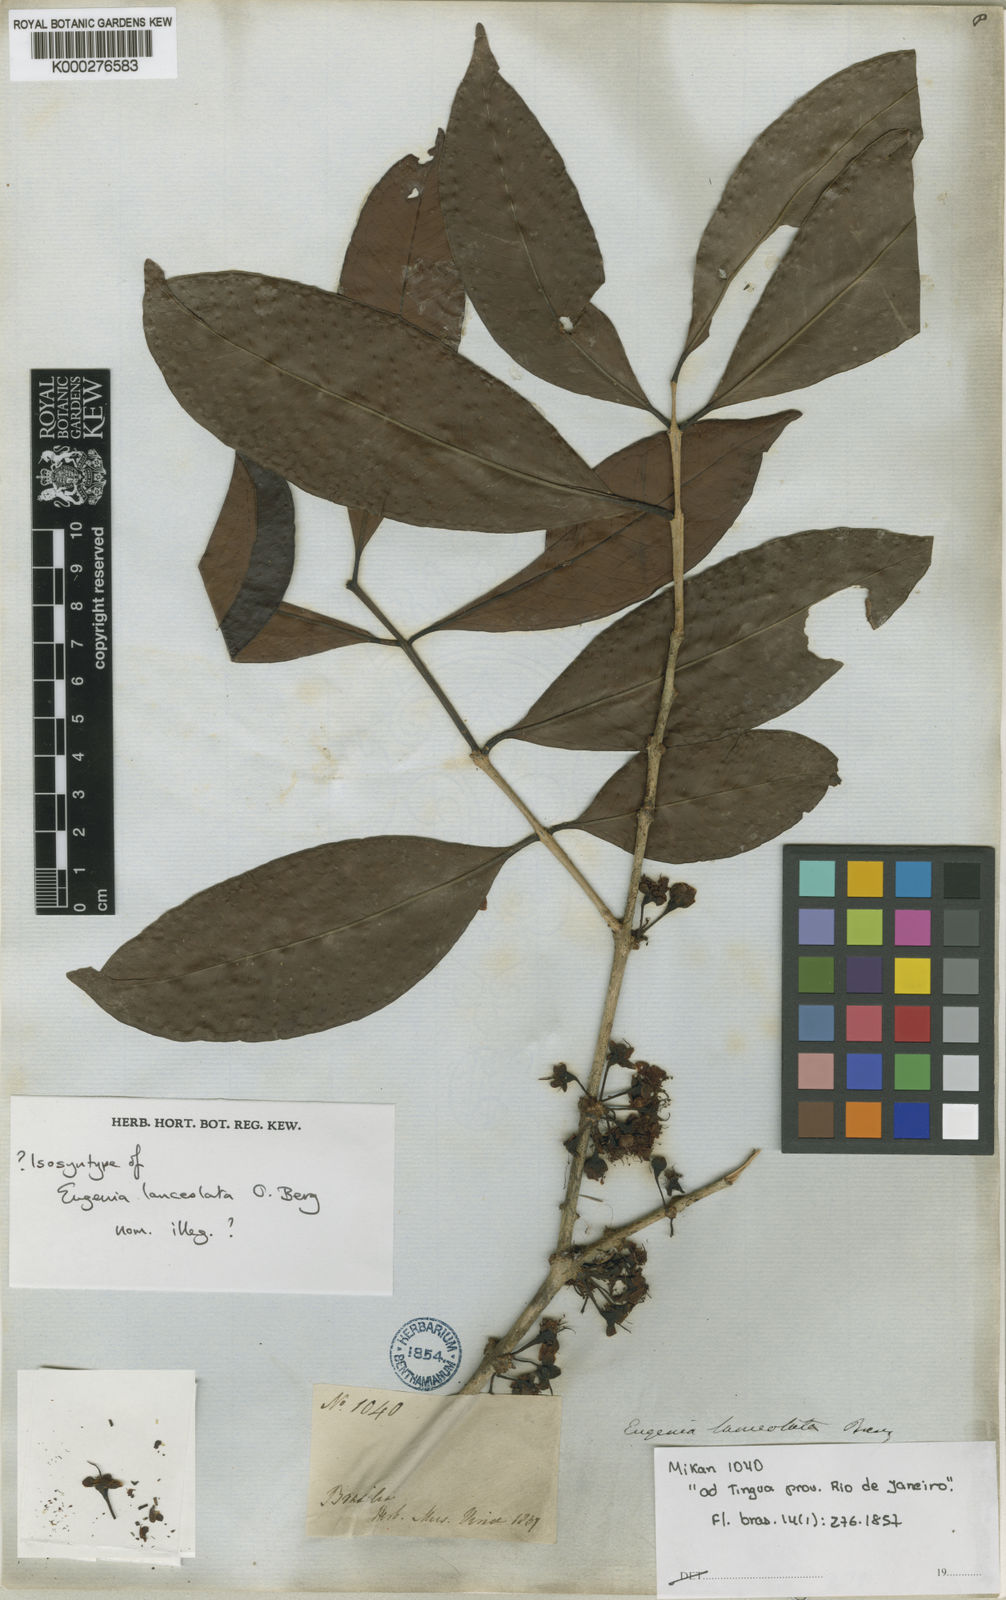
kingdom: Plantae
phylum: Tracheophyta
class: Magnoliopsida
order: Myrtales
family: Myrtaceae
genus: Eugenia
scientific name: Eugenia fusca
